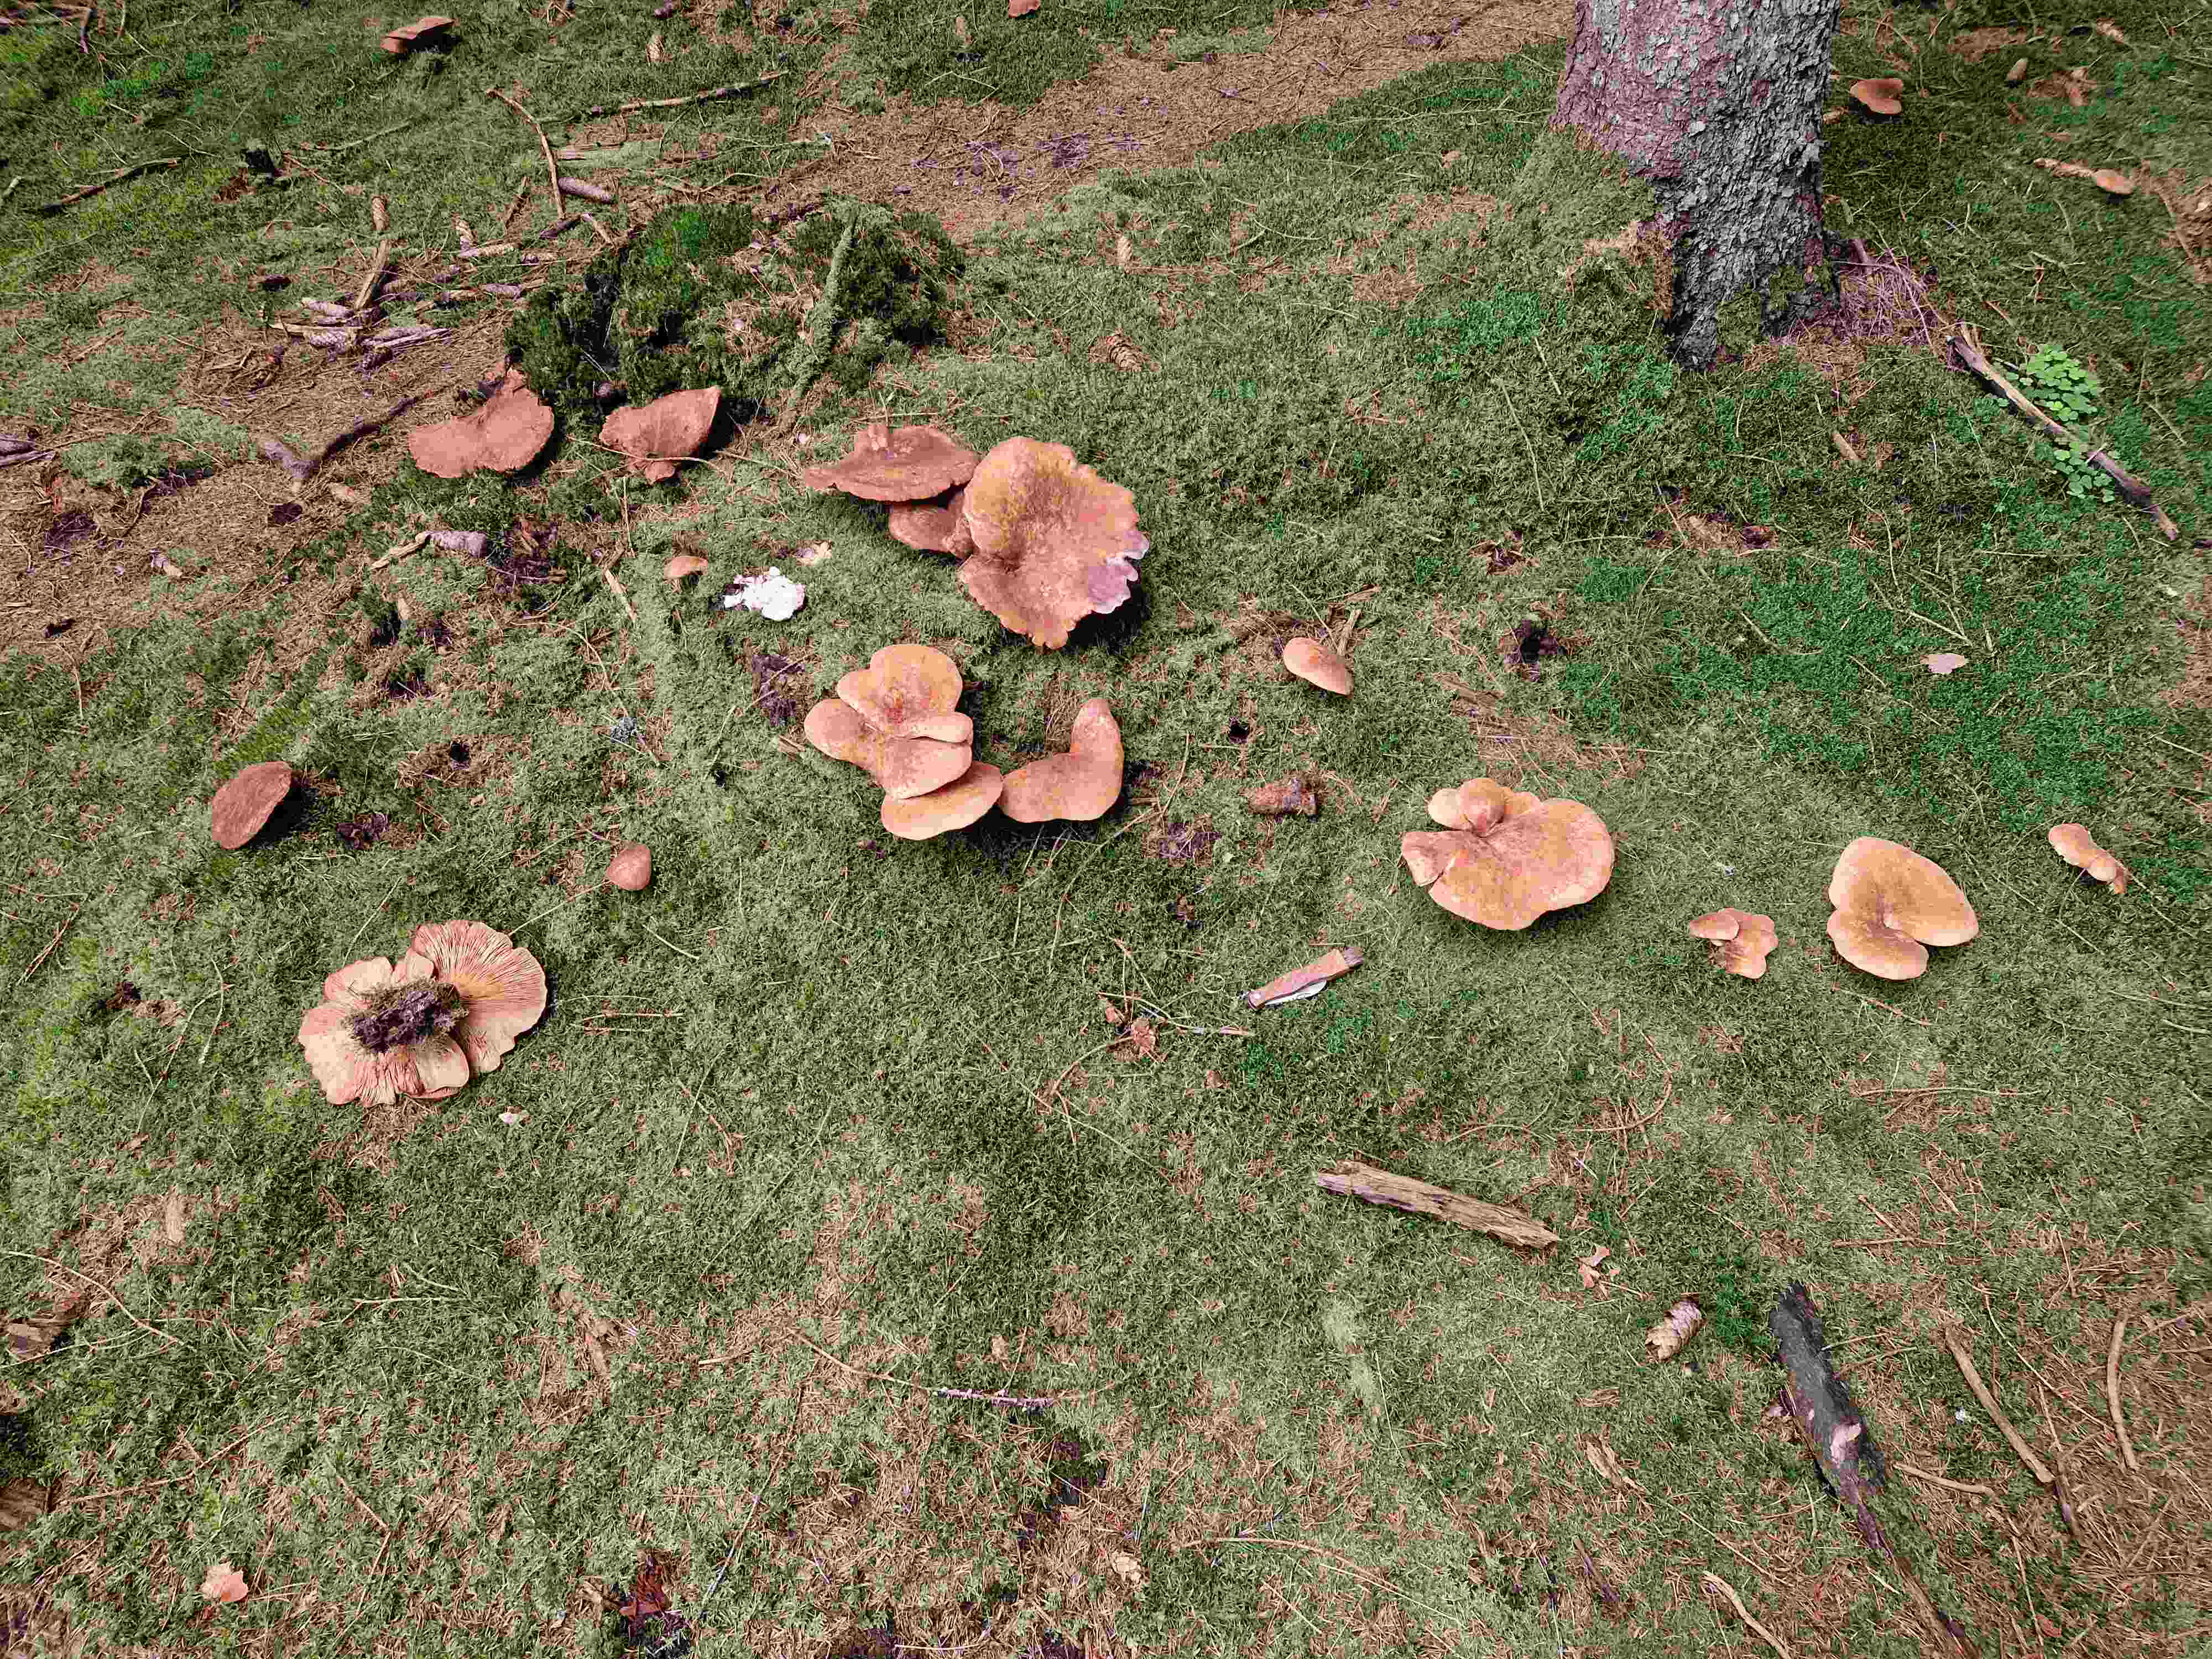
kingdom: Fungi
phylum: Basidiomycota
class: Agaricomycetes
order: Boletales
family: Tapinellaceae
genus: Tapinella
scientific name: Tapinella atrotomentosa
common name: sortfiltet viftesvamp
